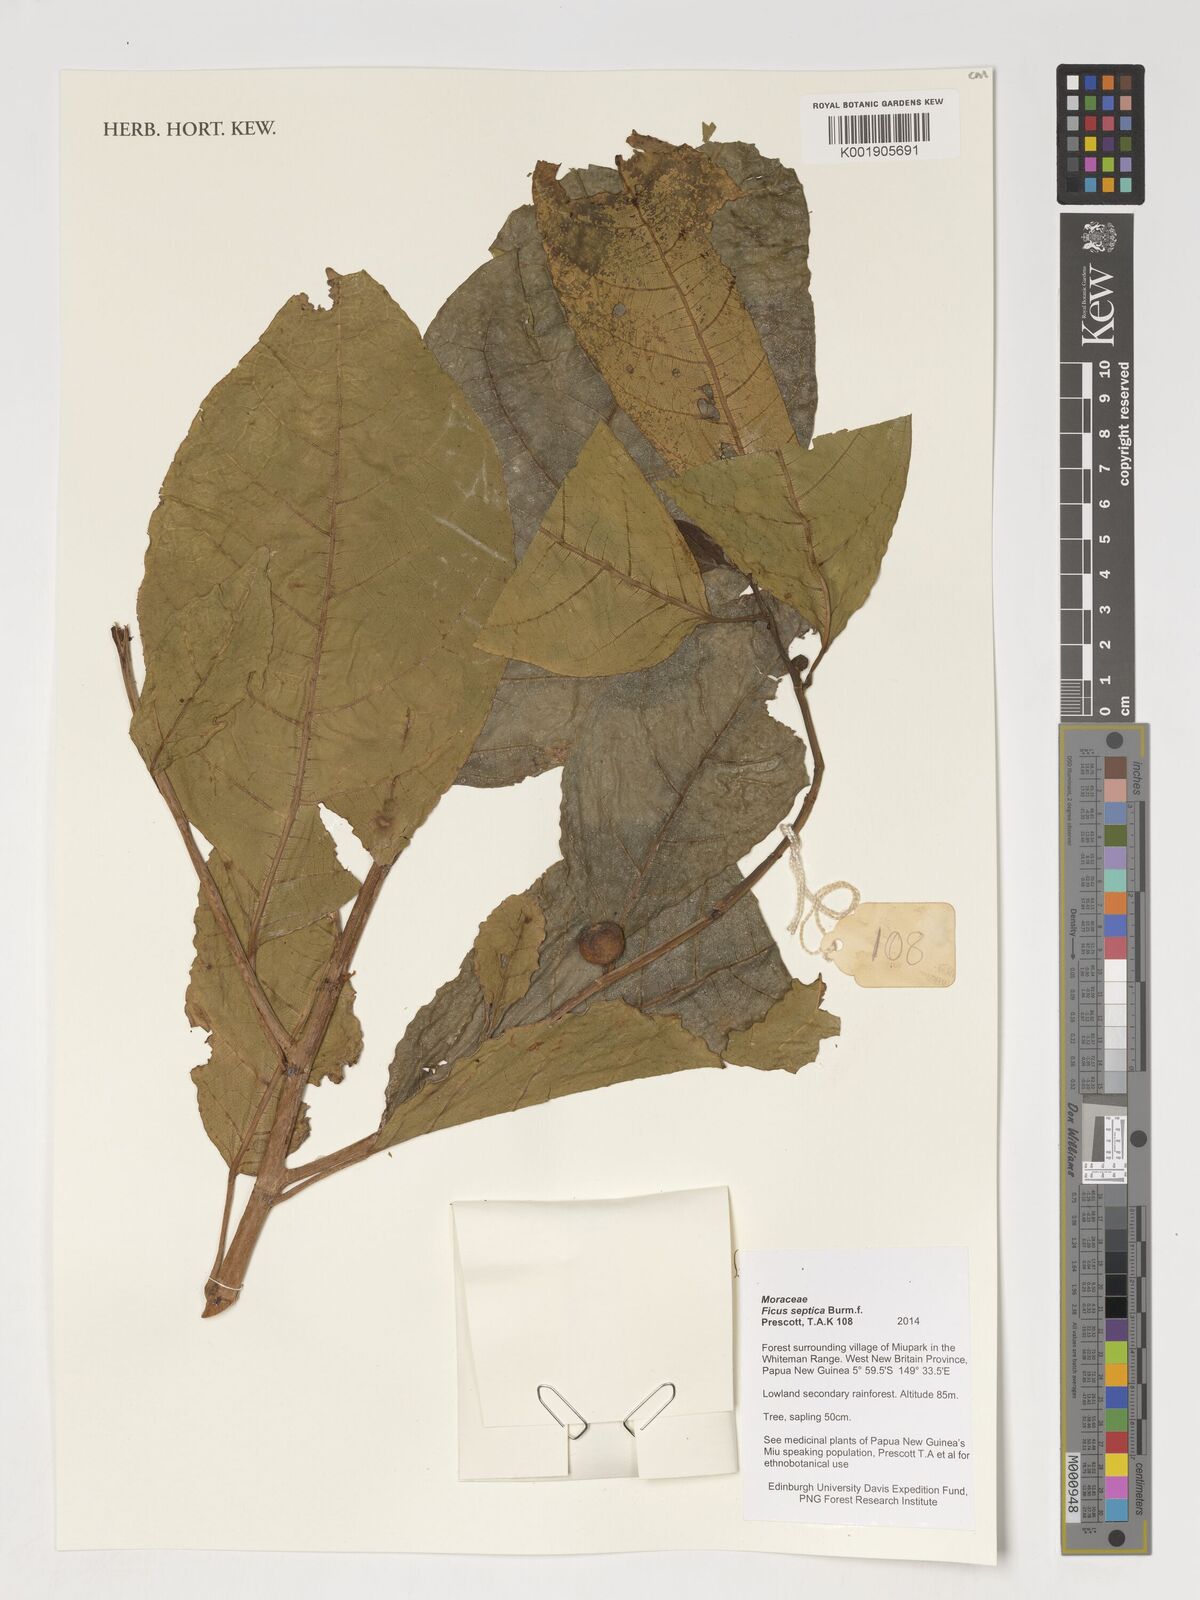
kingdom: Plantae
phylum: Tracheophyta
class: Magnoliopsida
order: Rosales
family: Moraceae
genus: Ficus
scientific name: Ficus septica
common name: Septic fig
